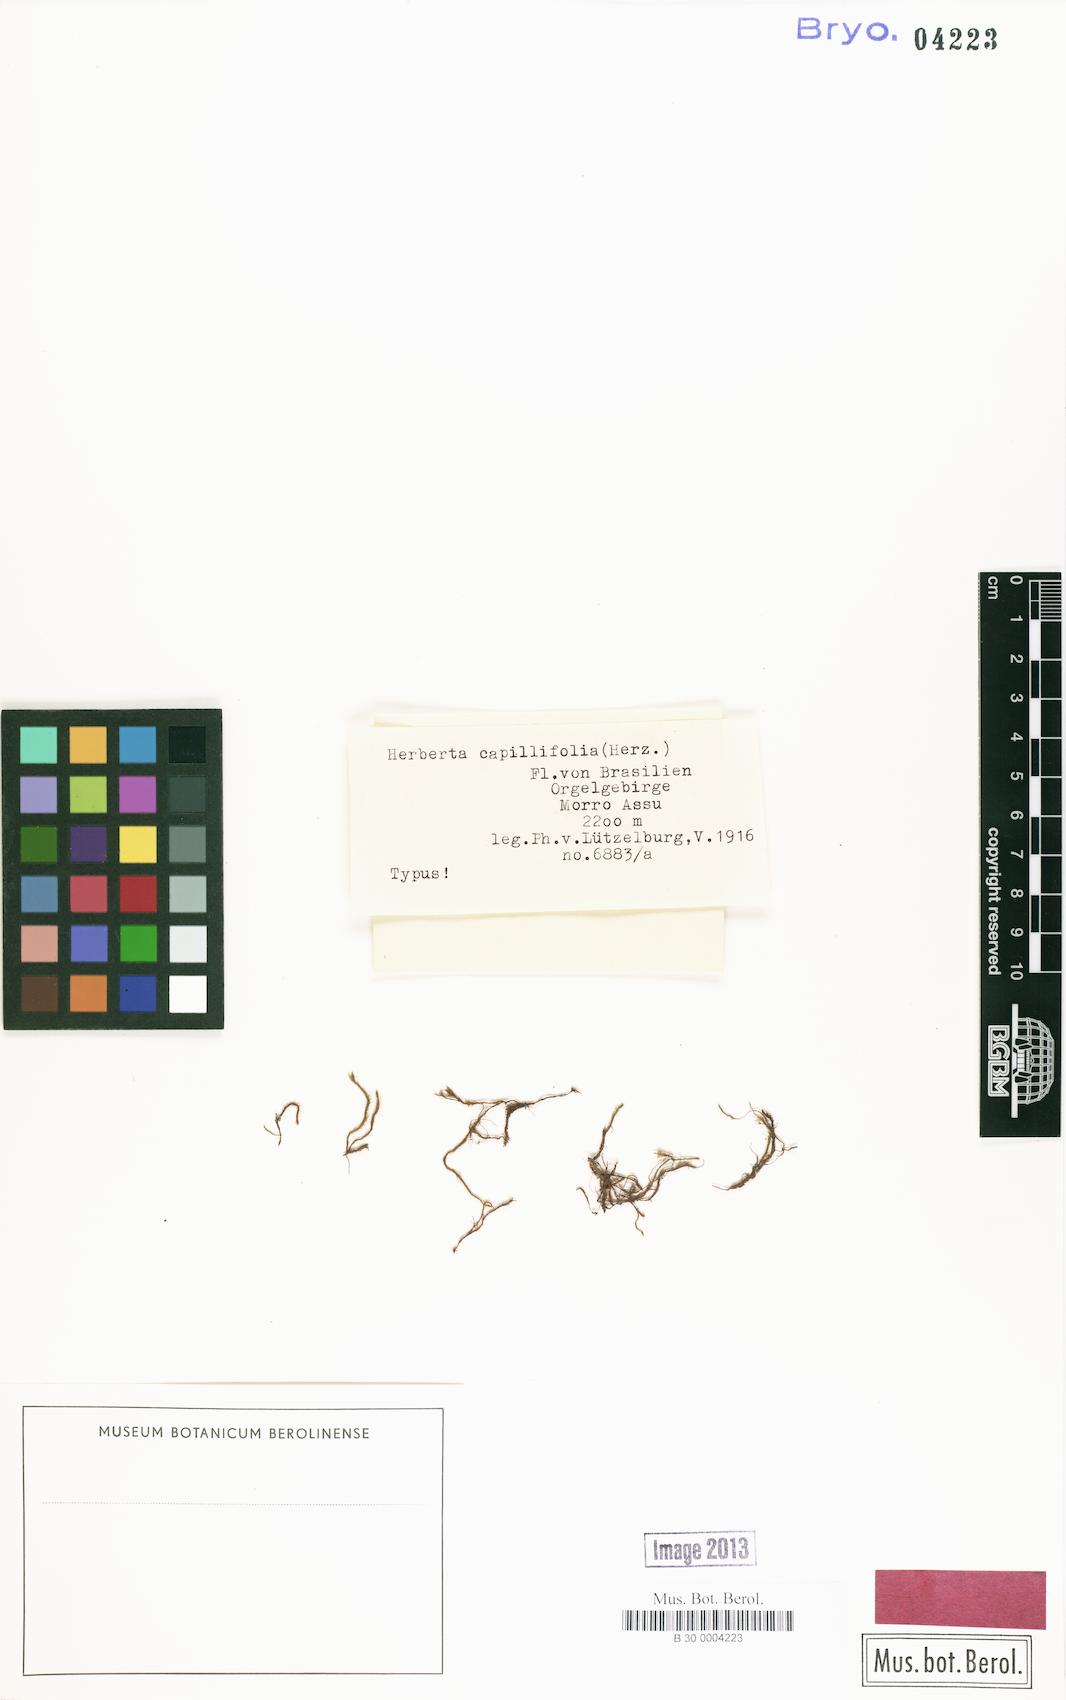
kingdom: Plantae
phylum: Marchantiophyta
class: Jungermanniopsida
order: Jungermanniales
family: Herbertaceae
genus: Herberta
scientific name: Herberta
